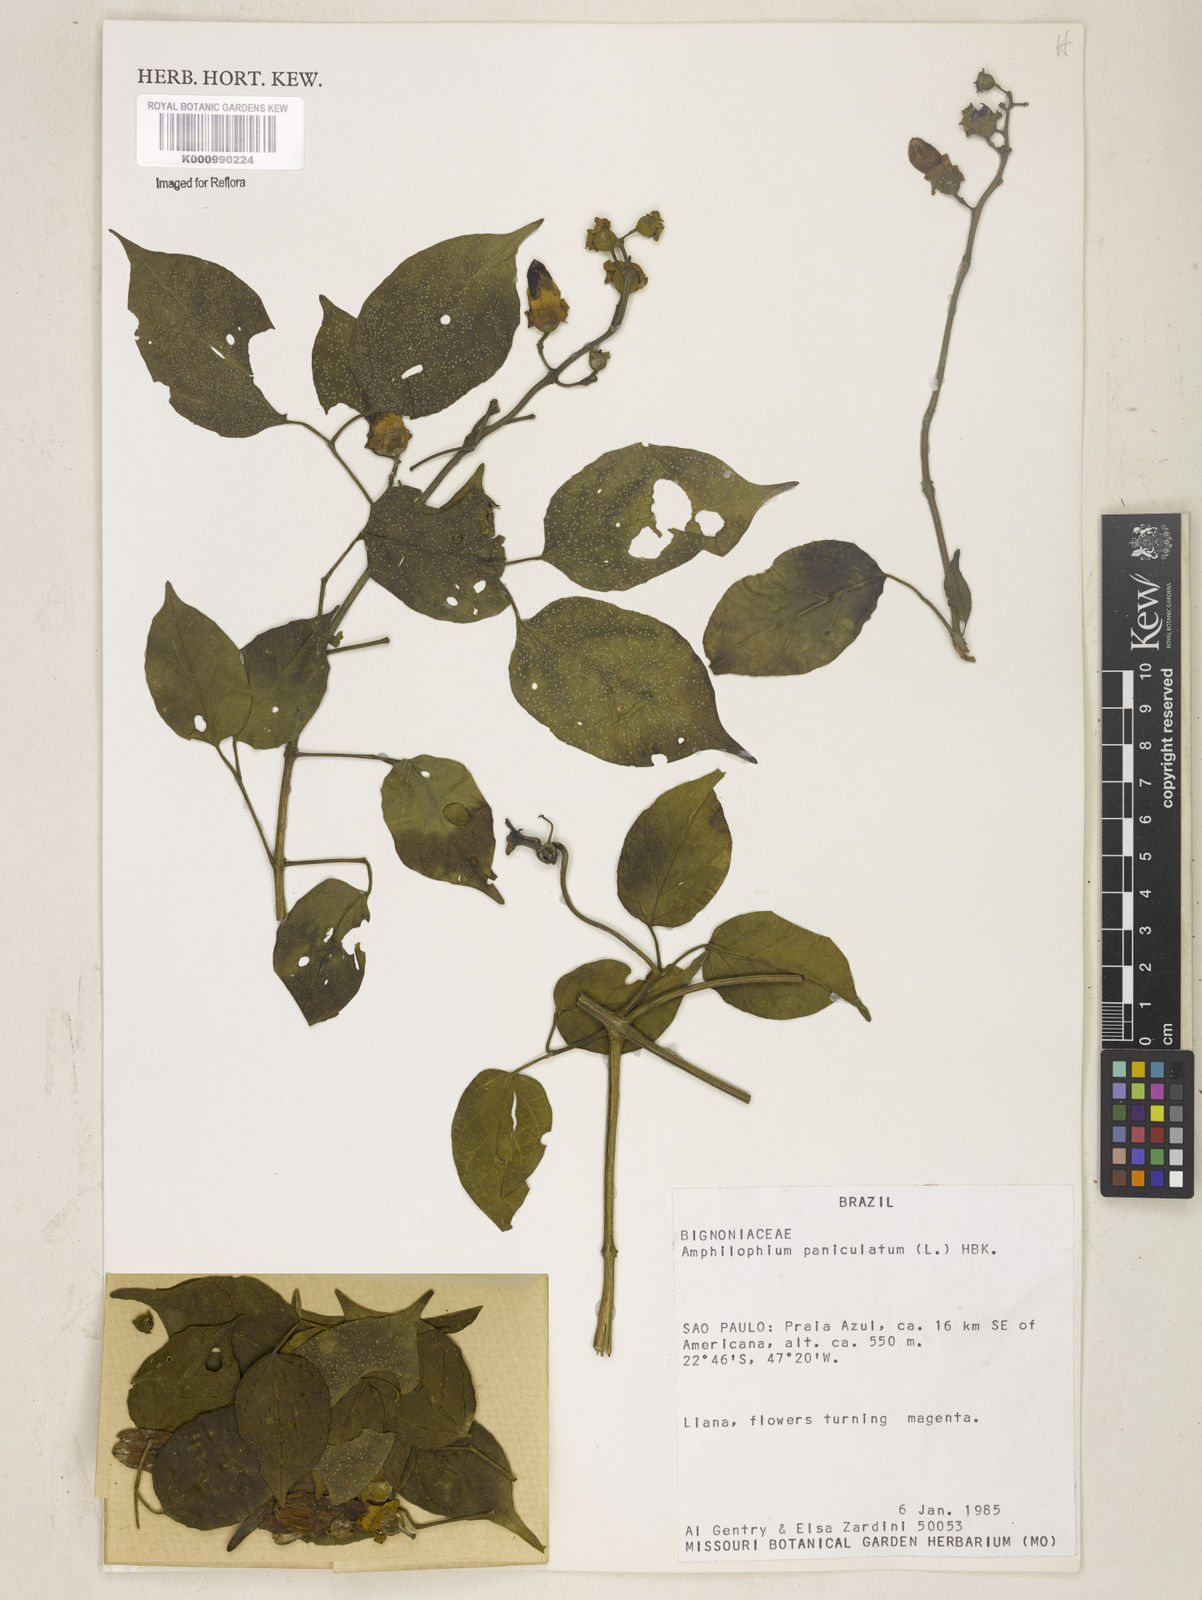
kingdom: Plantae
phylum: Tracheophyta
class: Magnoliopsida
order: Lamiales
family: Bignoniaceae
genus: Amphilophium
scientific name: Amphilophium paniculatum
